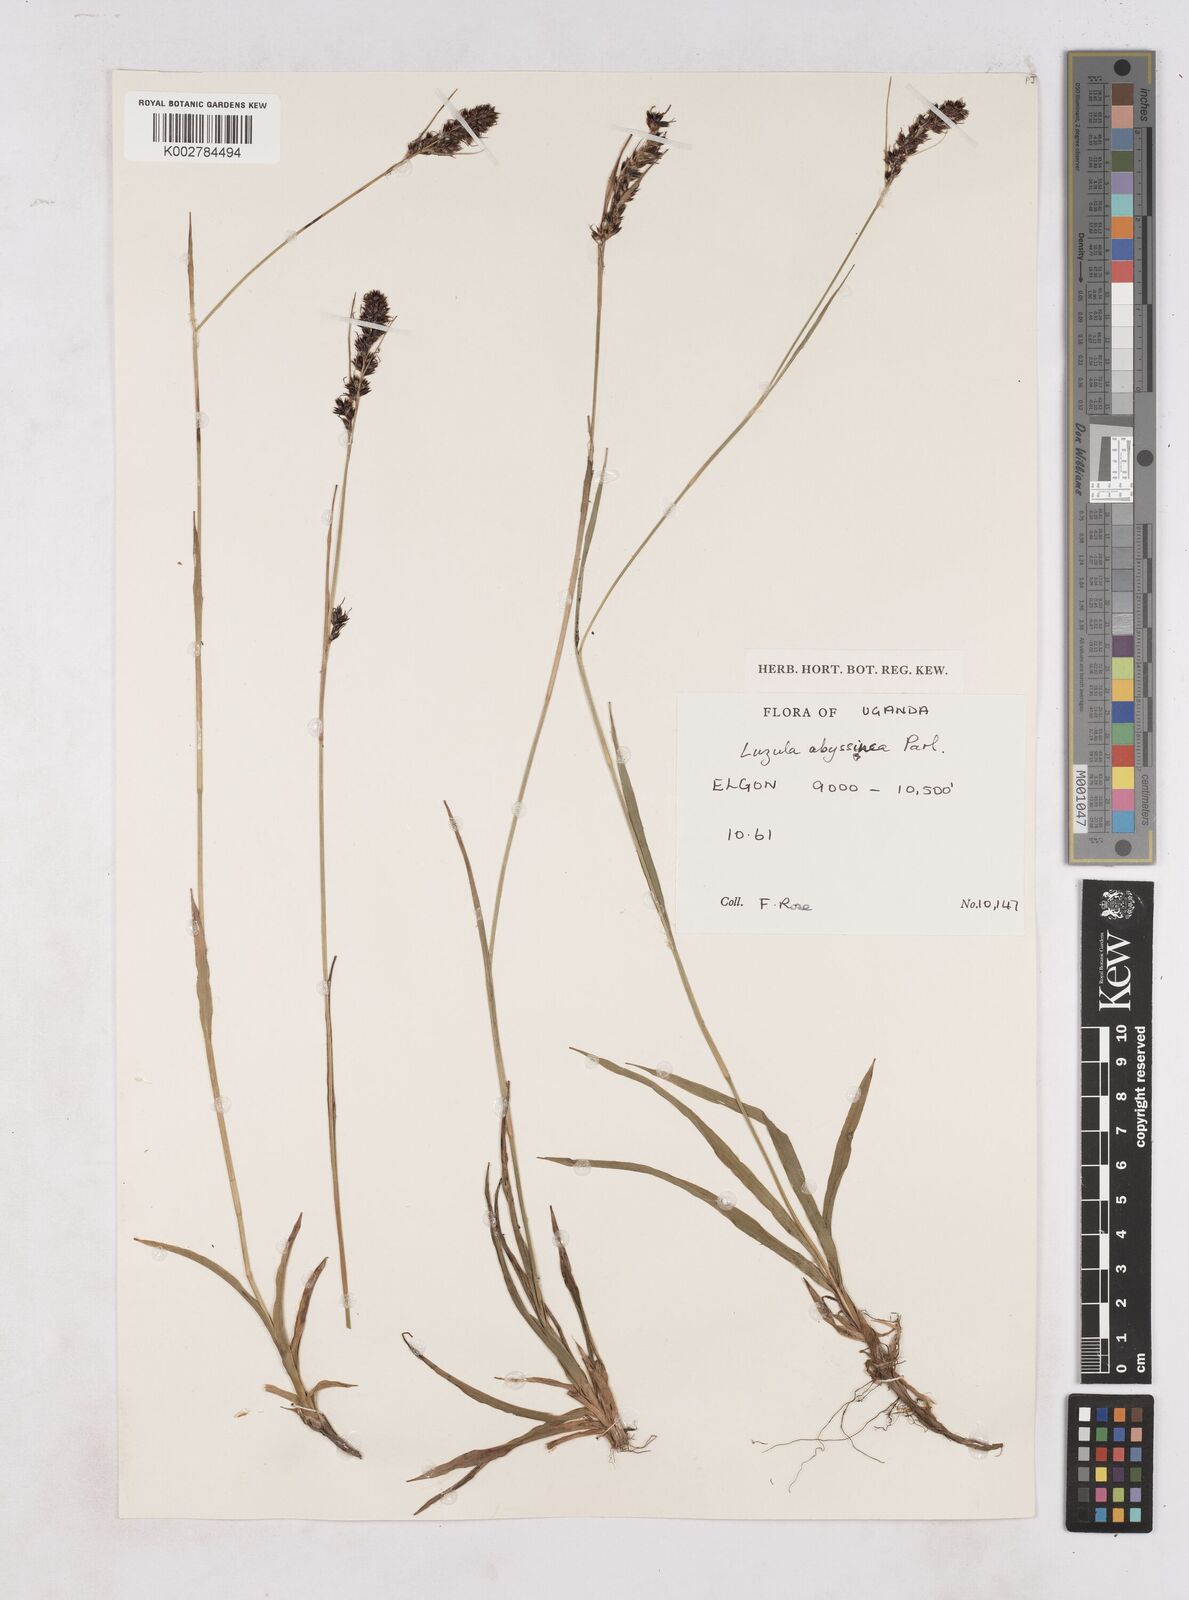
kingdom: Plantae
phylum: Tracheophyta
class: Liliopsida
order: Poales
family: Juncaceae
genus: Luzula
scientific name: Luzula abyssinica
